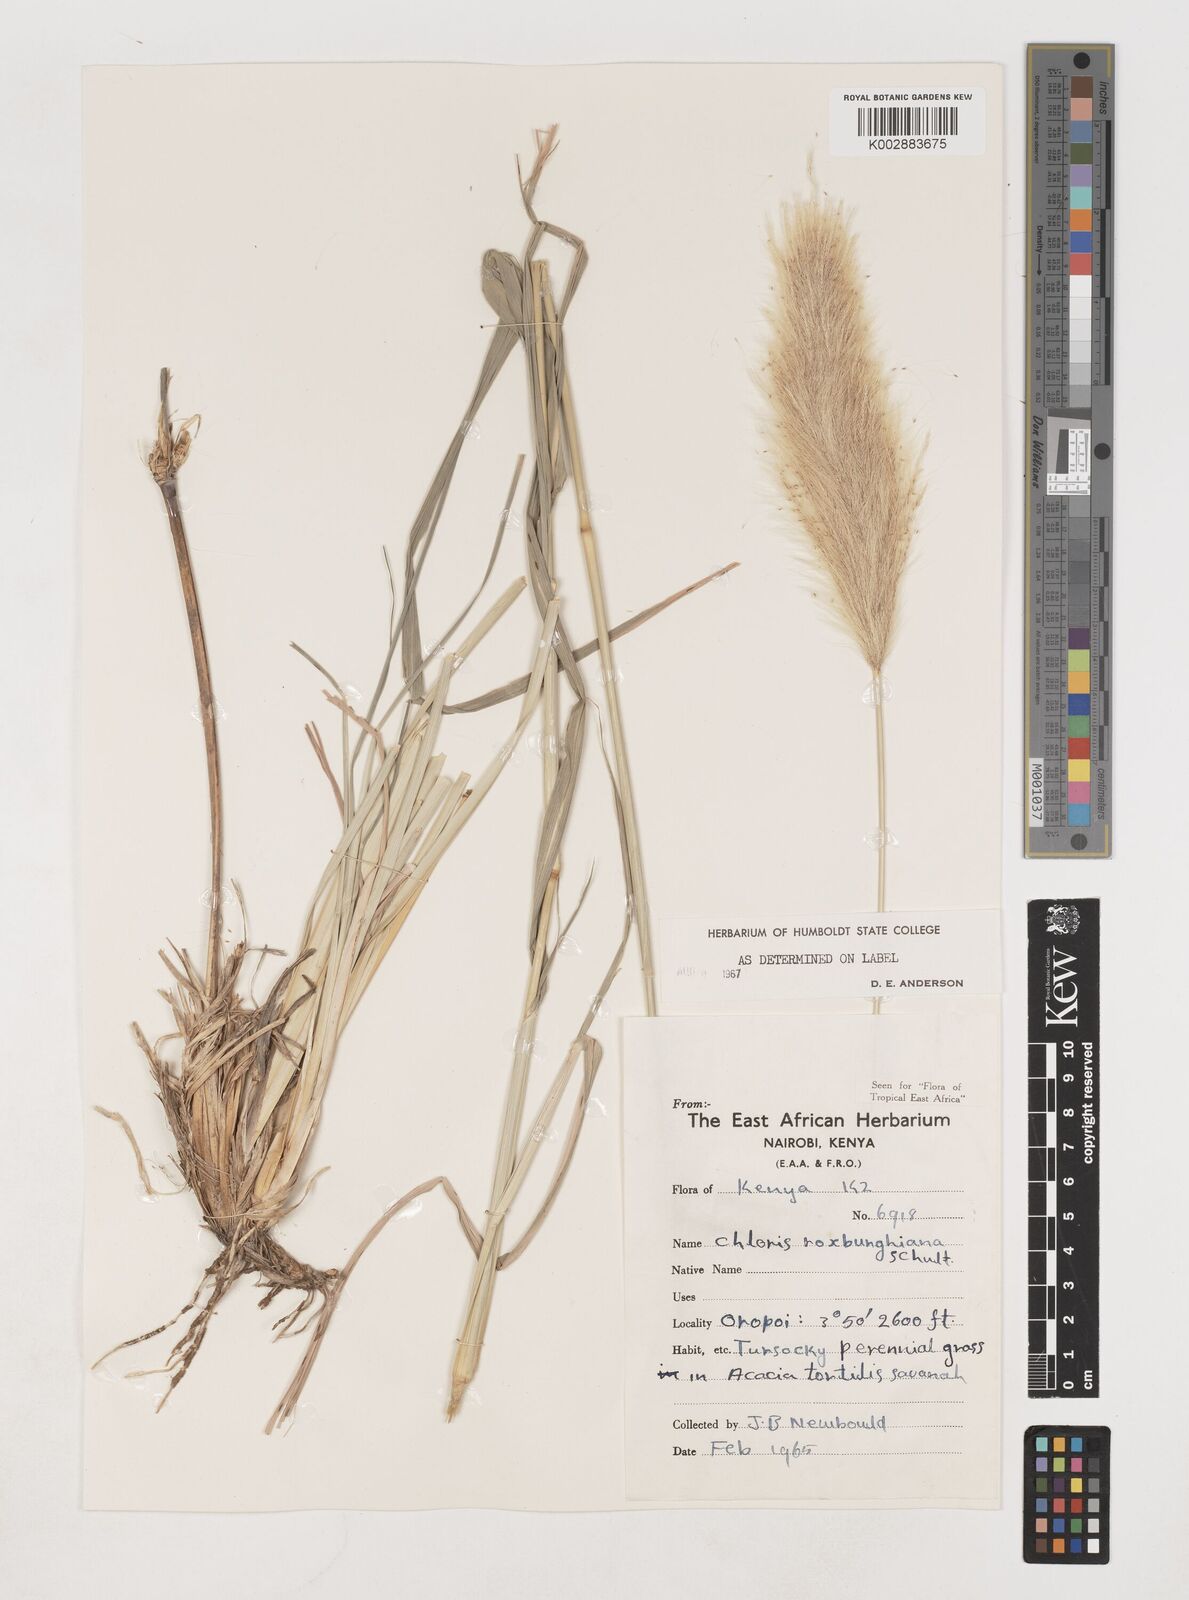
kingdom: Plantae
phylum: Tracheophyta
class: Liliopsida
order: Poales
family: Poaceae
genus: Tetrapogon
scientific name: Tetrapogon roxburghiana
